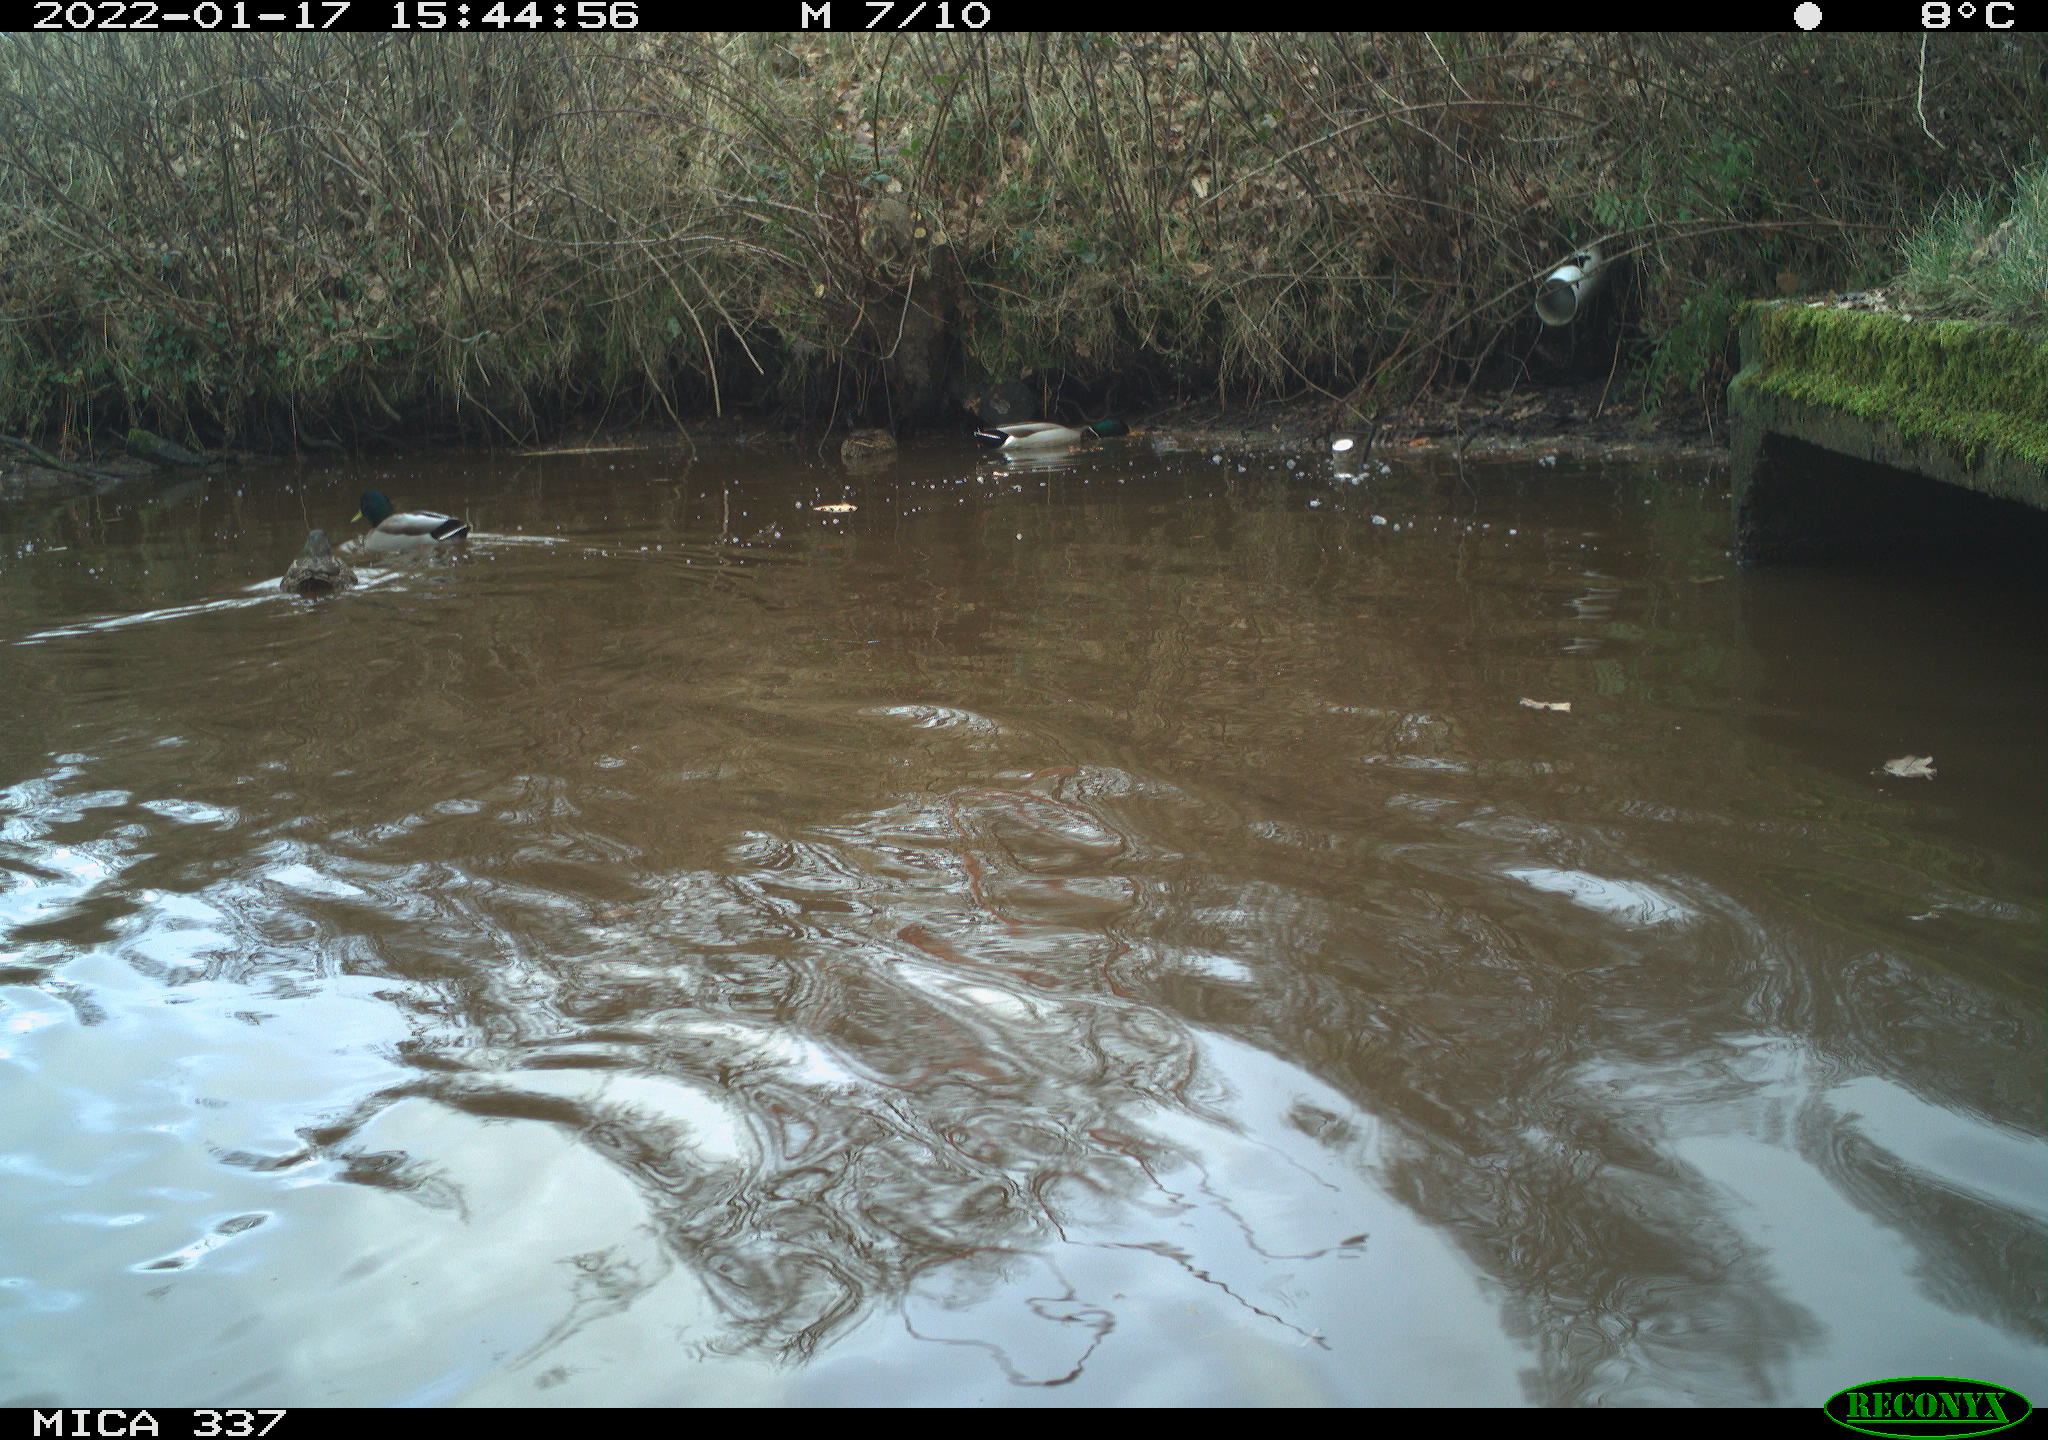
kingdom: Animalia
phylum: Chordata
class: Aves
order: Anseriformes
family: Anatidae
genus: Anas
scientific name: Anas platyrhynchos
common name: Mallard
